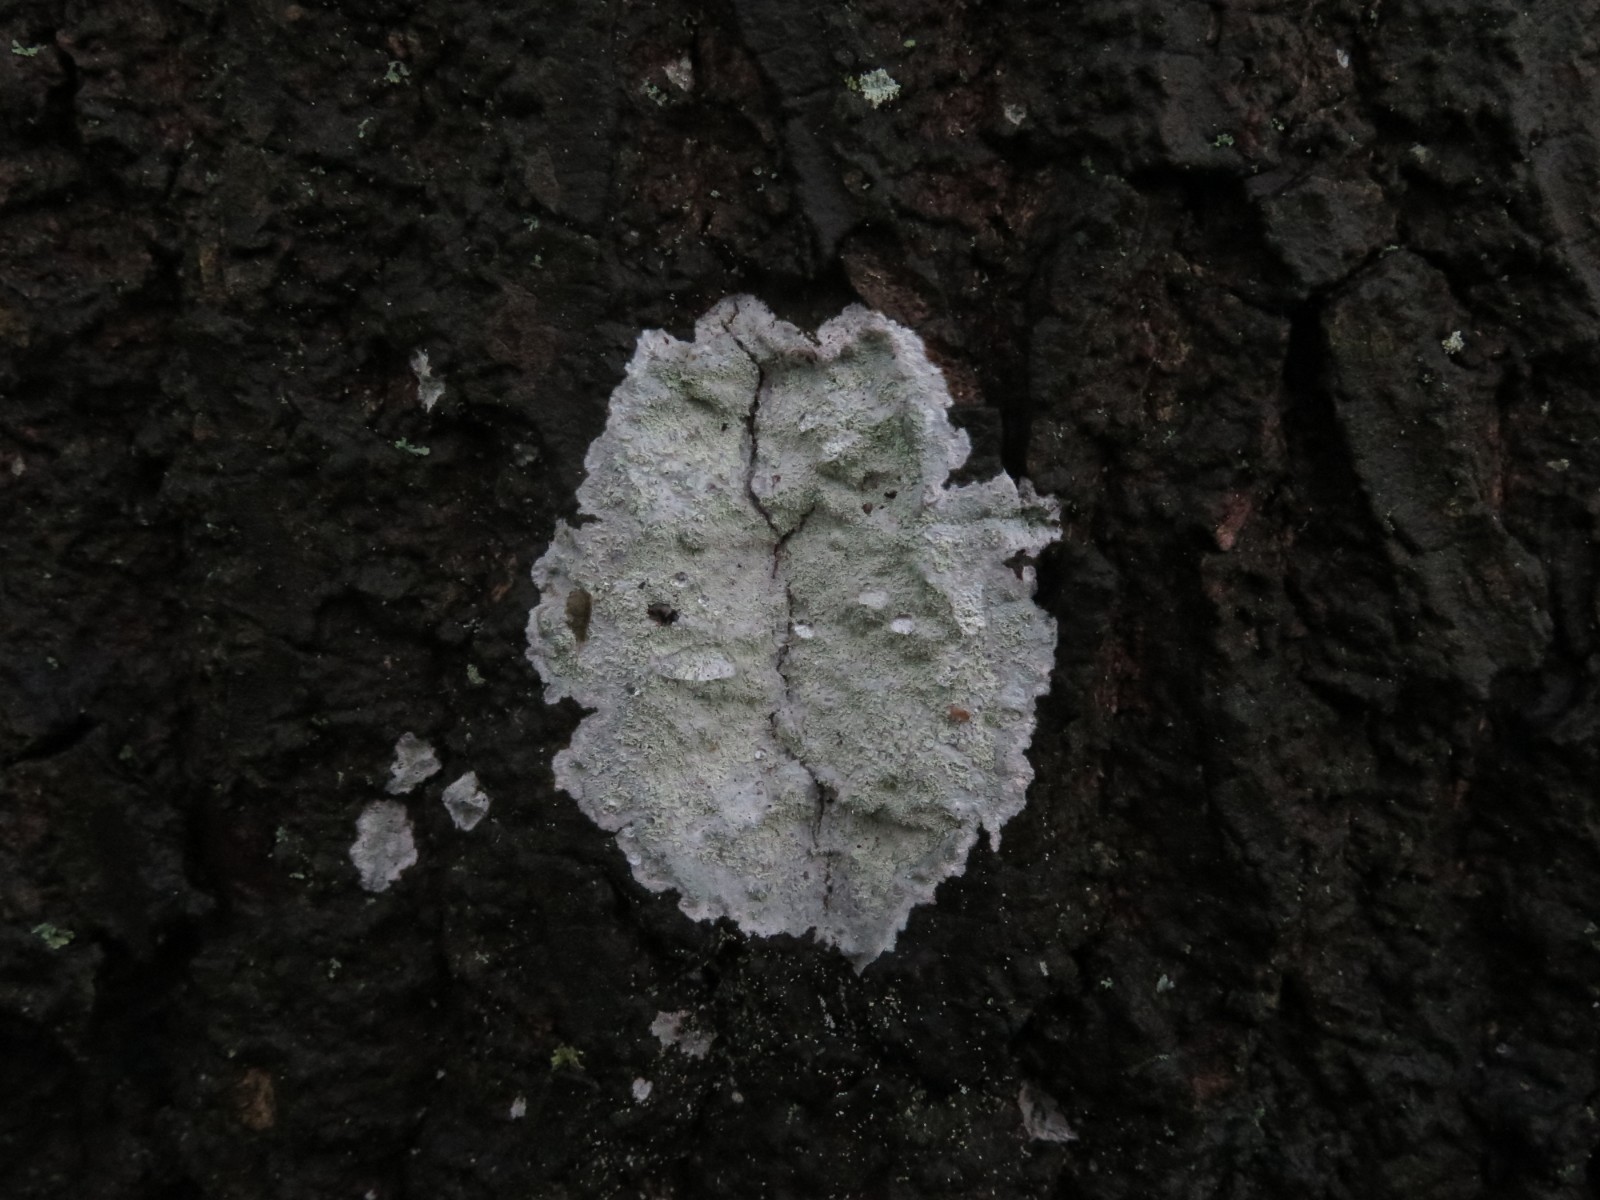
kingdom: Fungi
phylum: Ascomycota
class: Lecanoromycetes
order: Ostropales
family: Phlyctidaceae
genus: Phlyctis
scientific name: Phlyctis argena
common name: almindelig sølvlav
